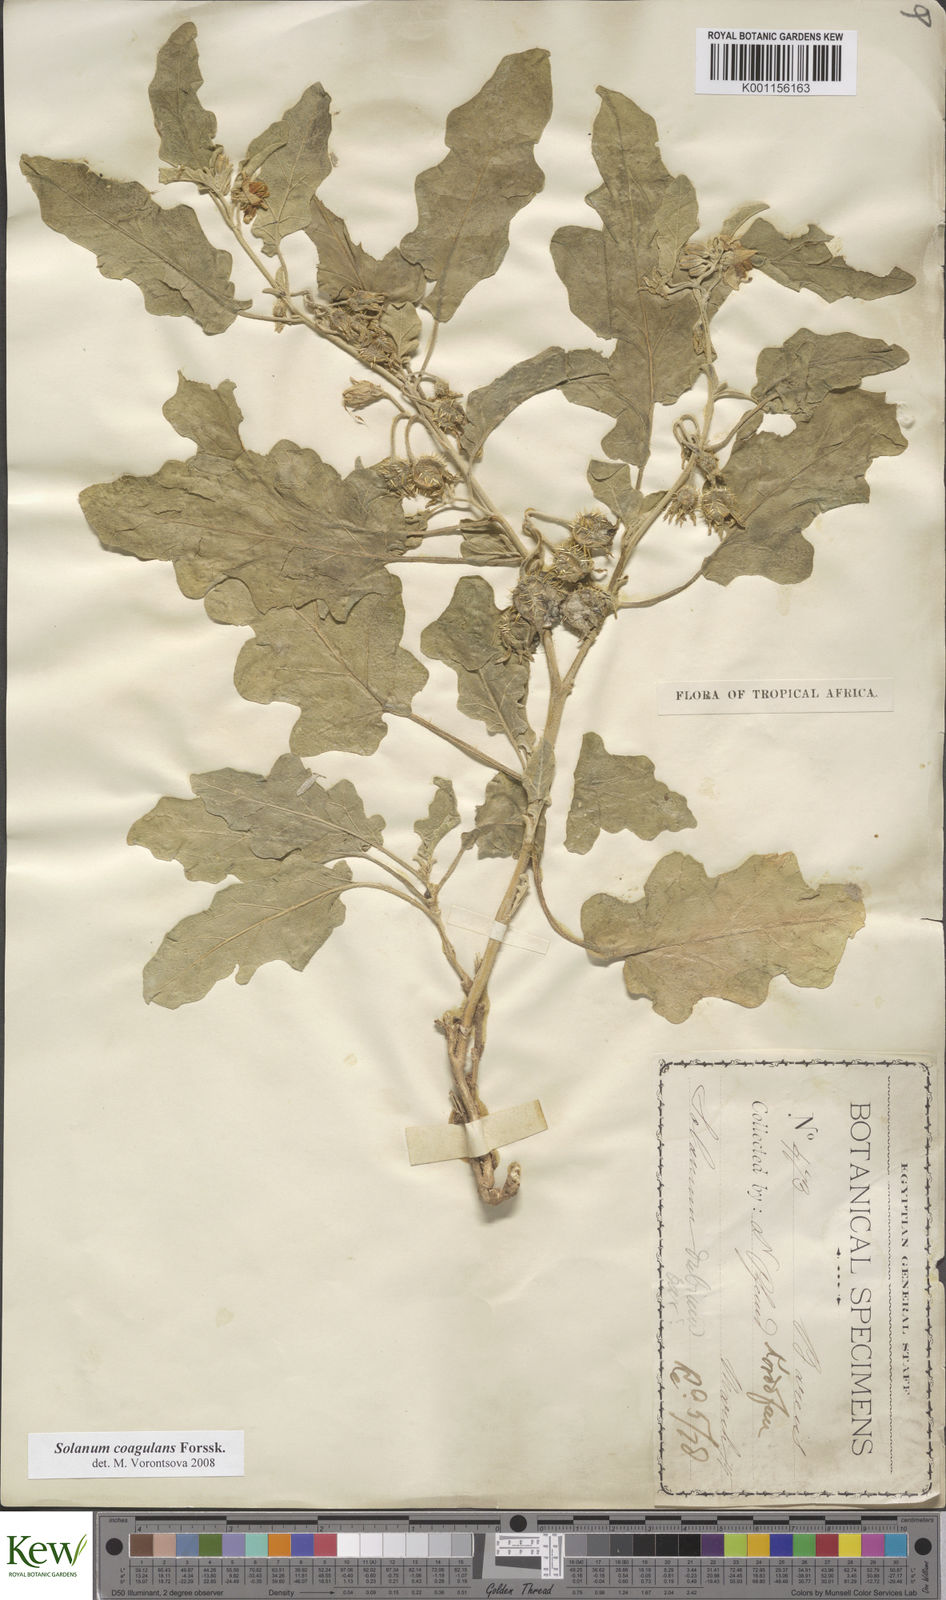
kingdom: Plantae
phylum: Tracheophyta
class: Magnoliopsida
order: Solanales
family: Solanaceae
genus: Solanum
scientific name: Solanum coagulans
